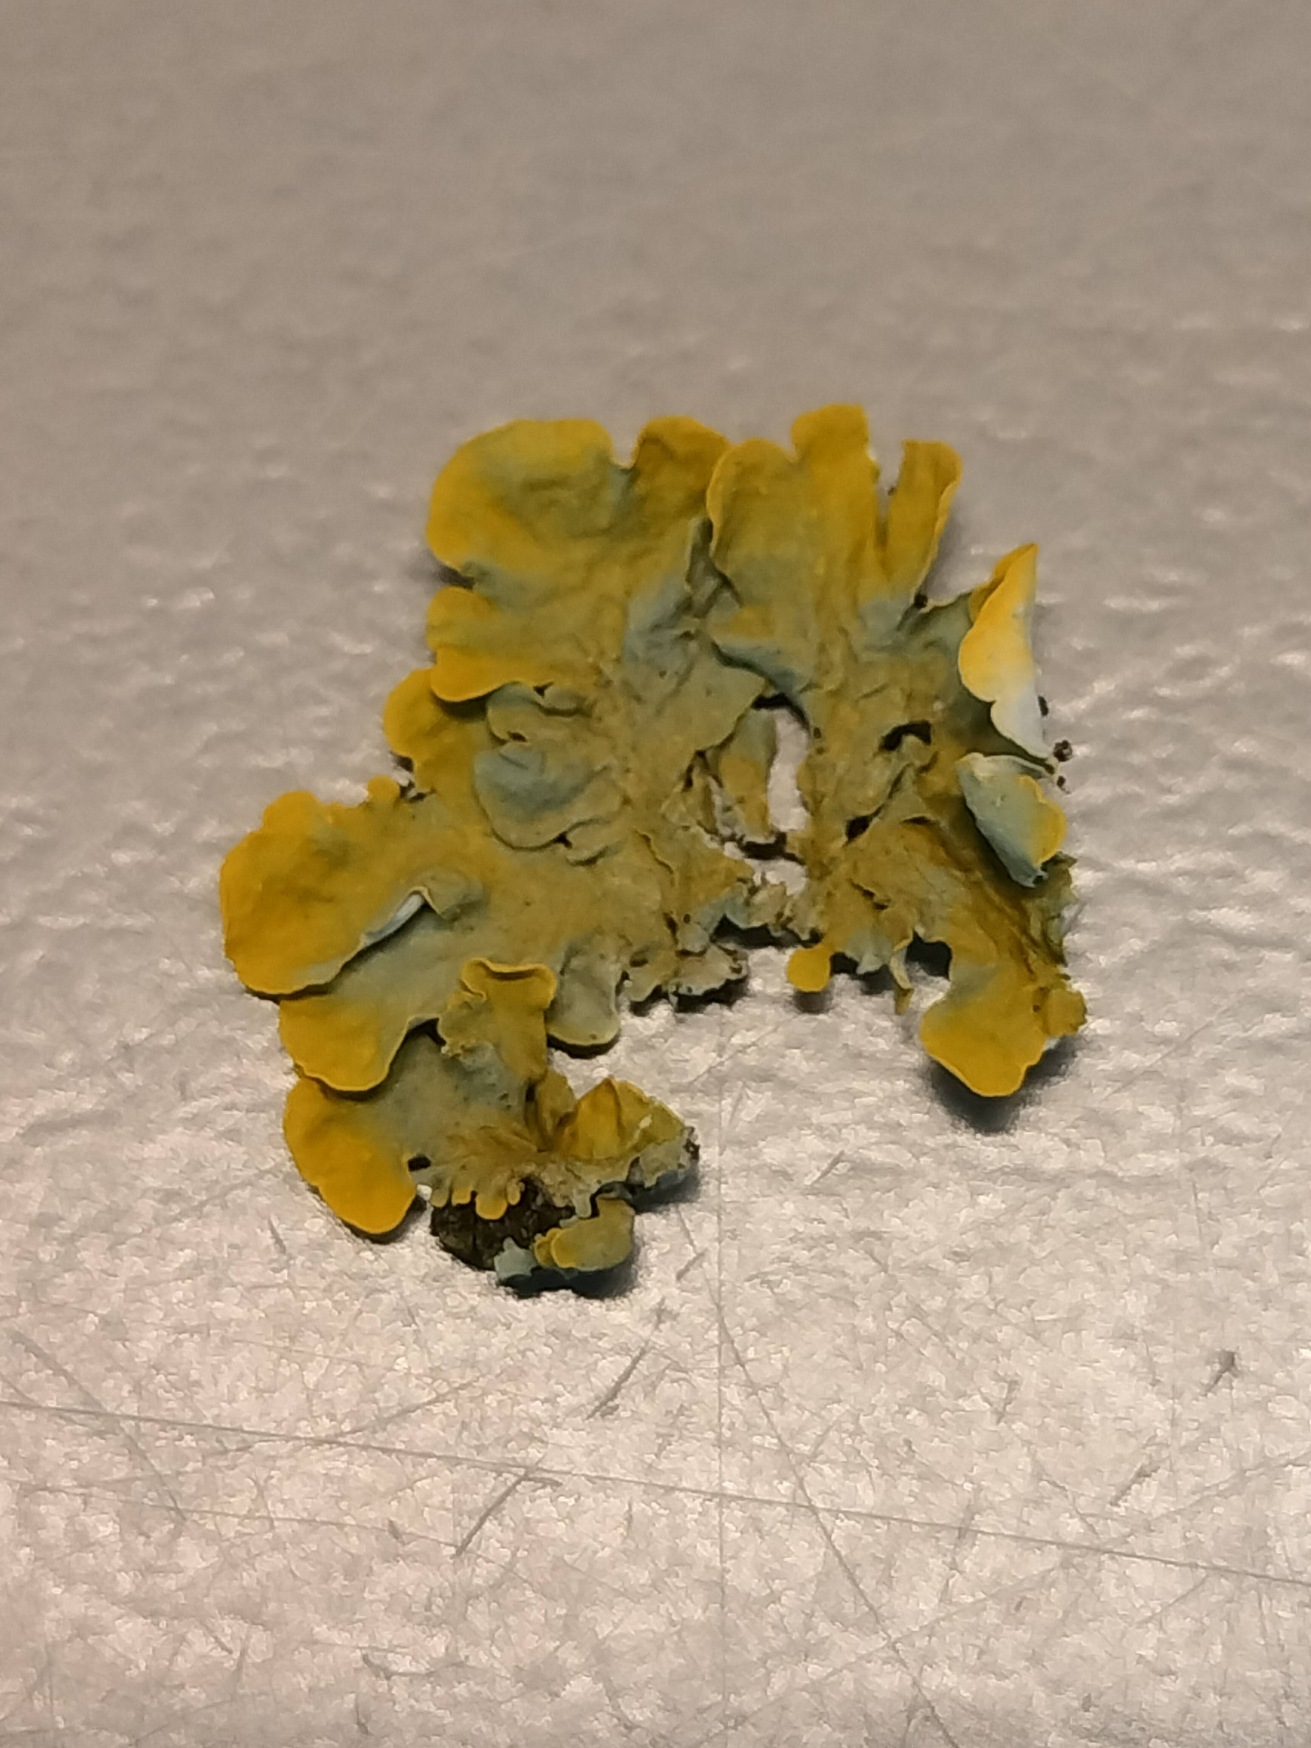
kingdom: Fungi
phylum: Ascomycota
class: Lecanoromycetes
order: Teloschistales
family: Teloschistaceae
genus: Xanthoria
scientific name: Xanthoria parietina
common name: Almindelig væggelav
